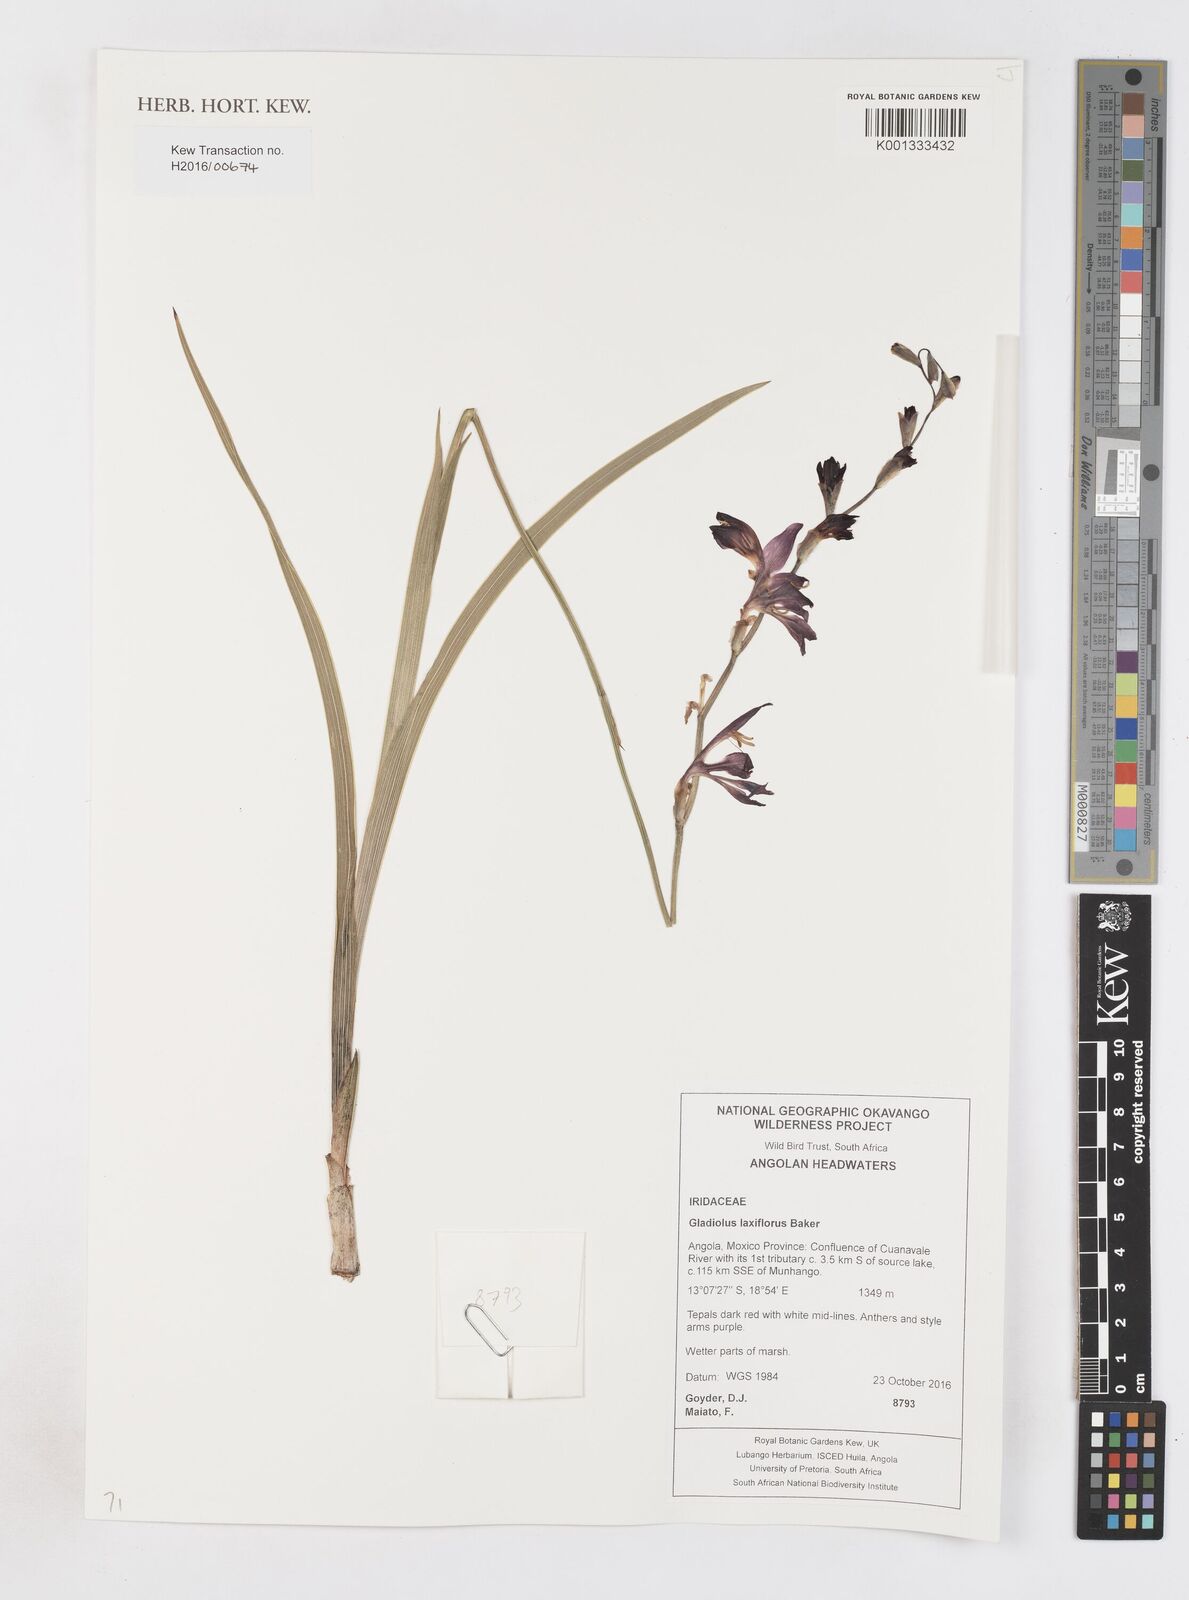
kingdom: Plantae
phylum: Tracheophyta
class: Liliopsida
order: Asparagales
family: Iridaceae
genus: Gladiolus
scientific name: Gladiolus laxiflorus
